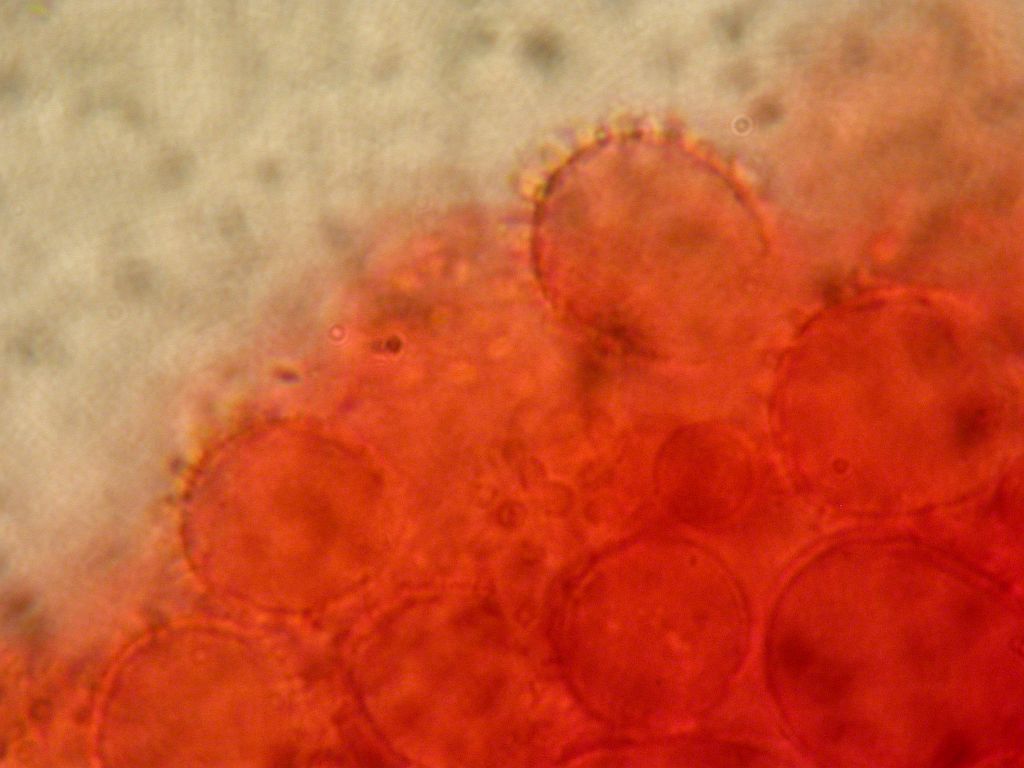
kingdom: Fungi
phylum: Basidiomycota
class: Agaricomycetes
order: Agaricales
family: Mycenaceae
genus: Mycena
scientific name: Mycena metata
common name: rødlig huesvamp
